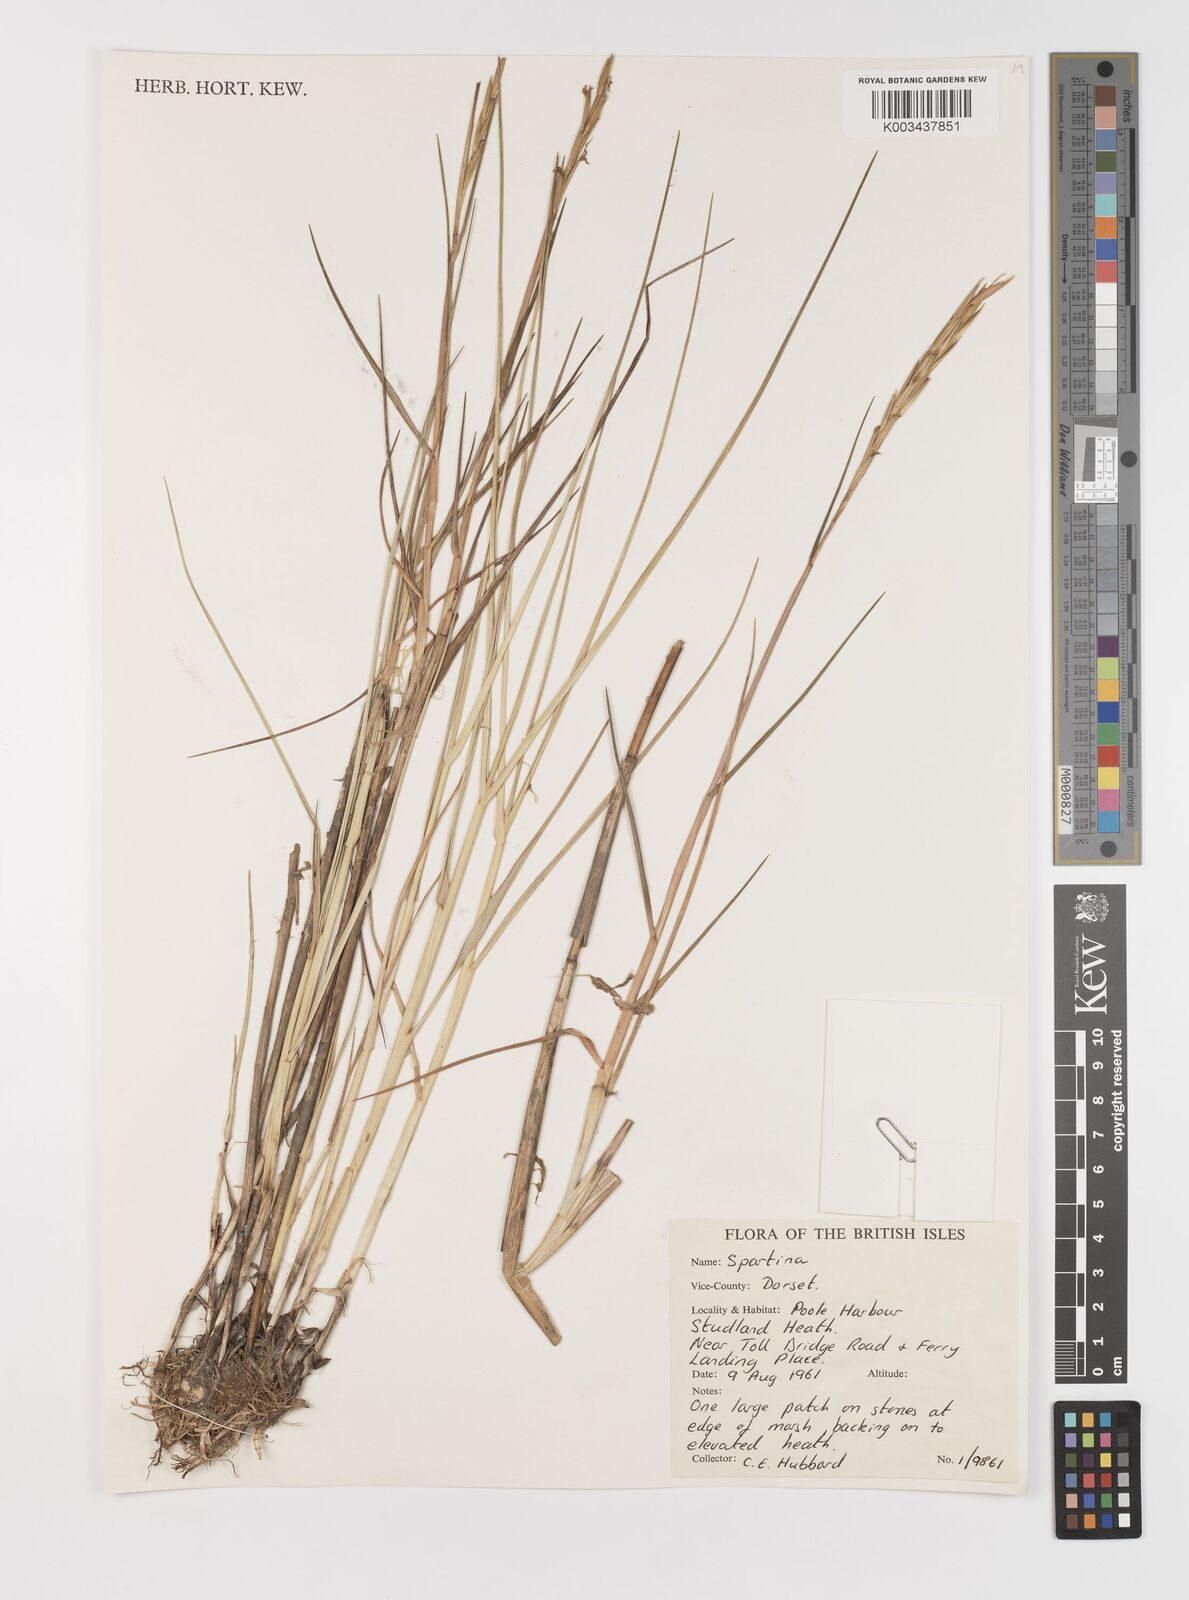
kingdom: Animalia
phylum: Mollusca
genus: Spartina
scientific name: Spartina
